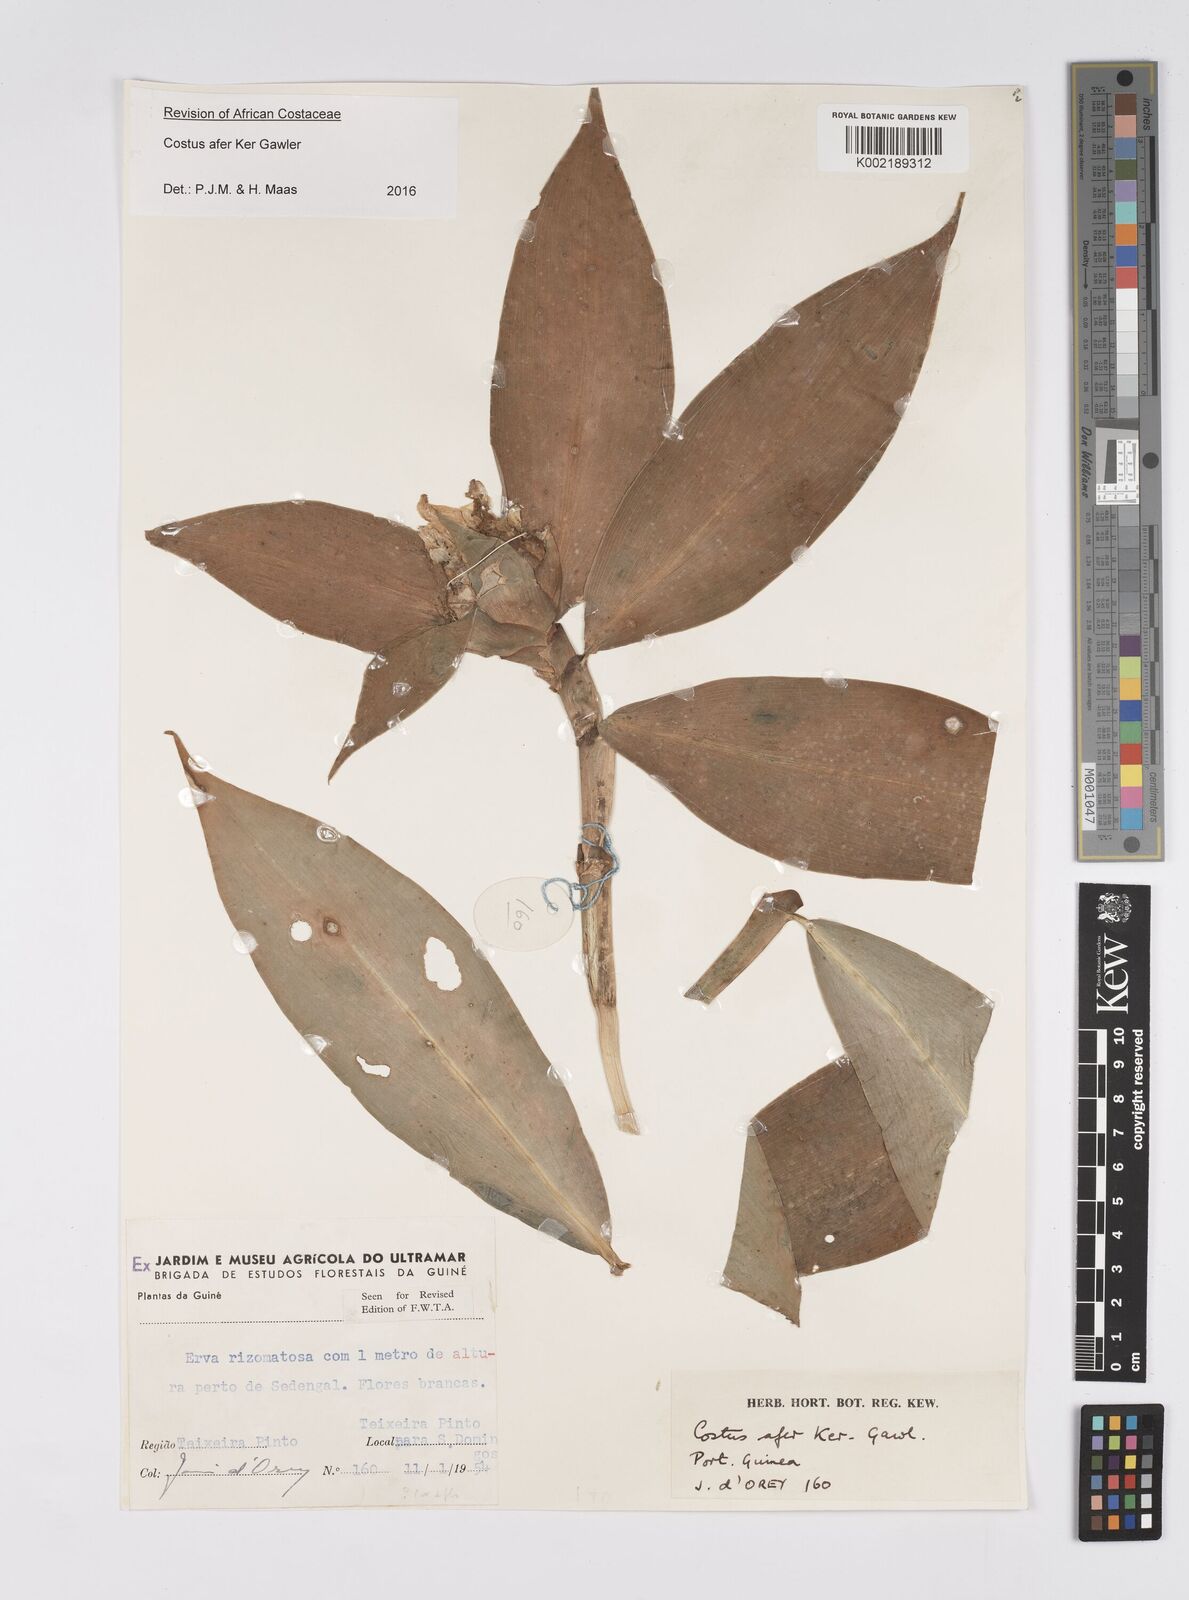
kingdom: Plantae
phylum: Tracheophyta
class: Liliopsida
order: Zingiberales
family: Costaceae
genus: Costus
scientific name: Costus afer
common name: Spiral-ginger
